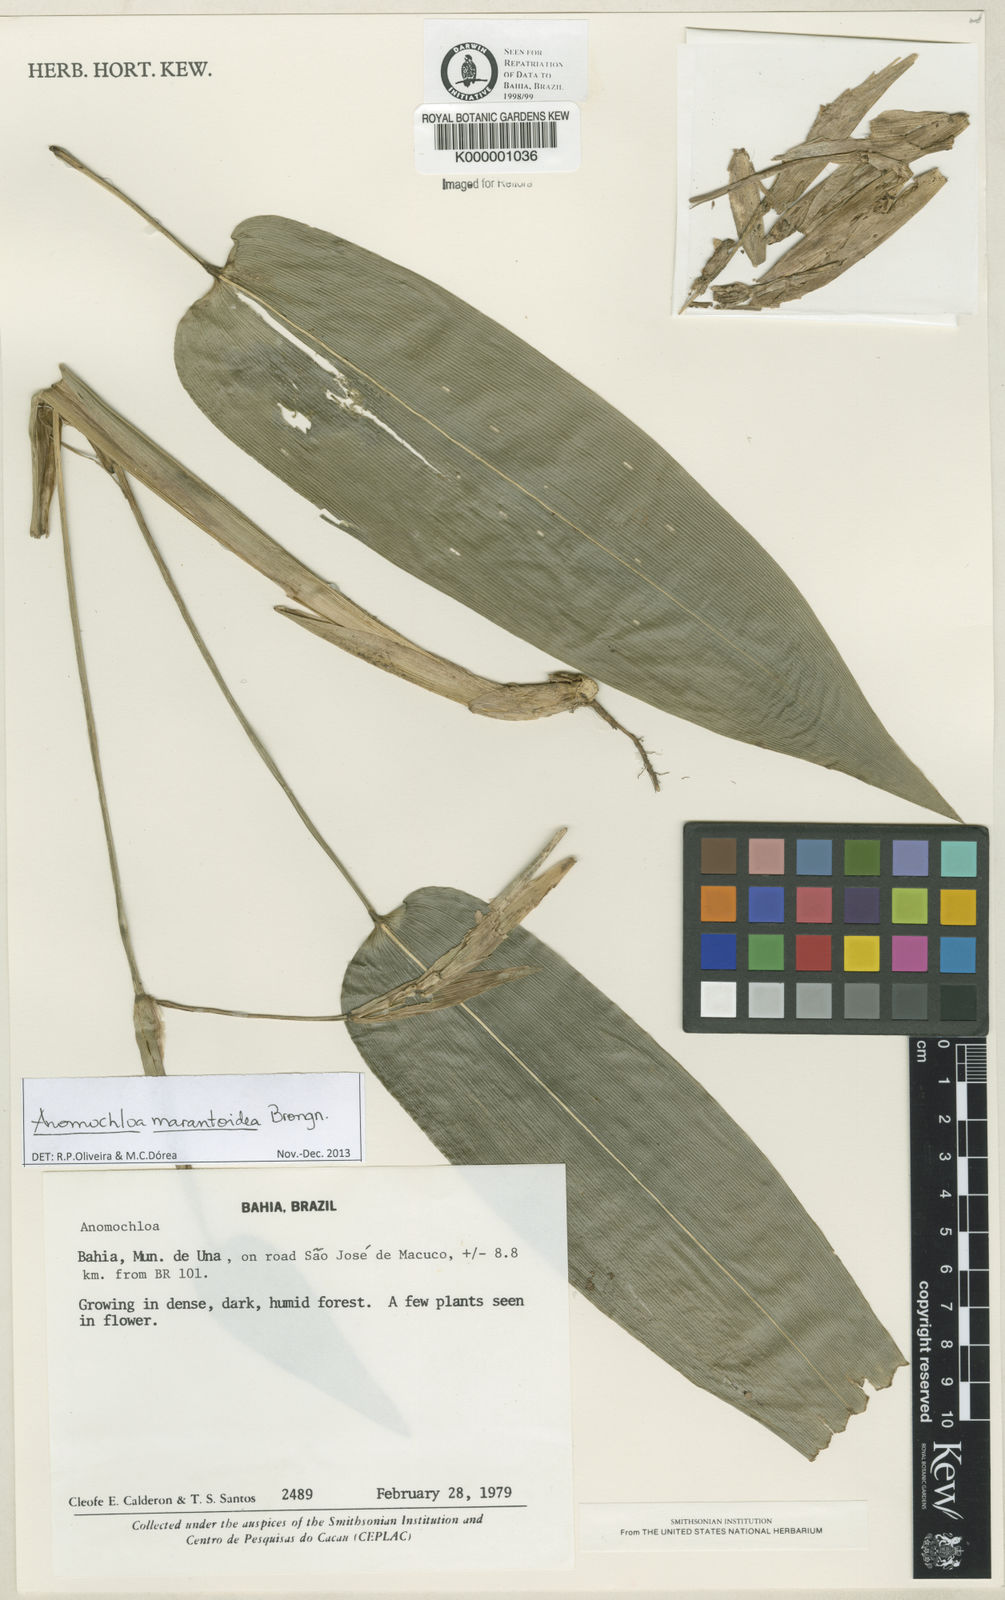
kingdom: Plantae
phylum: Tracheophyta
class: Liliopsida
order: Poales
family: Poaceae
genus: Anomochloa
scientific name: Anomochloa marantoidea
